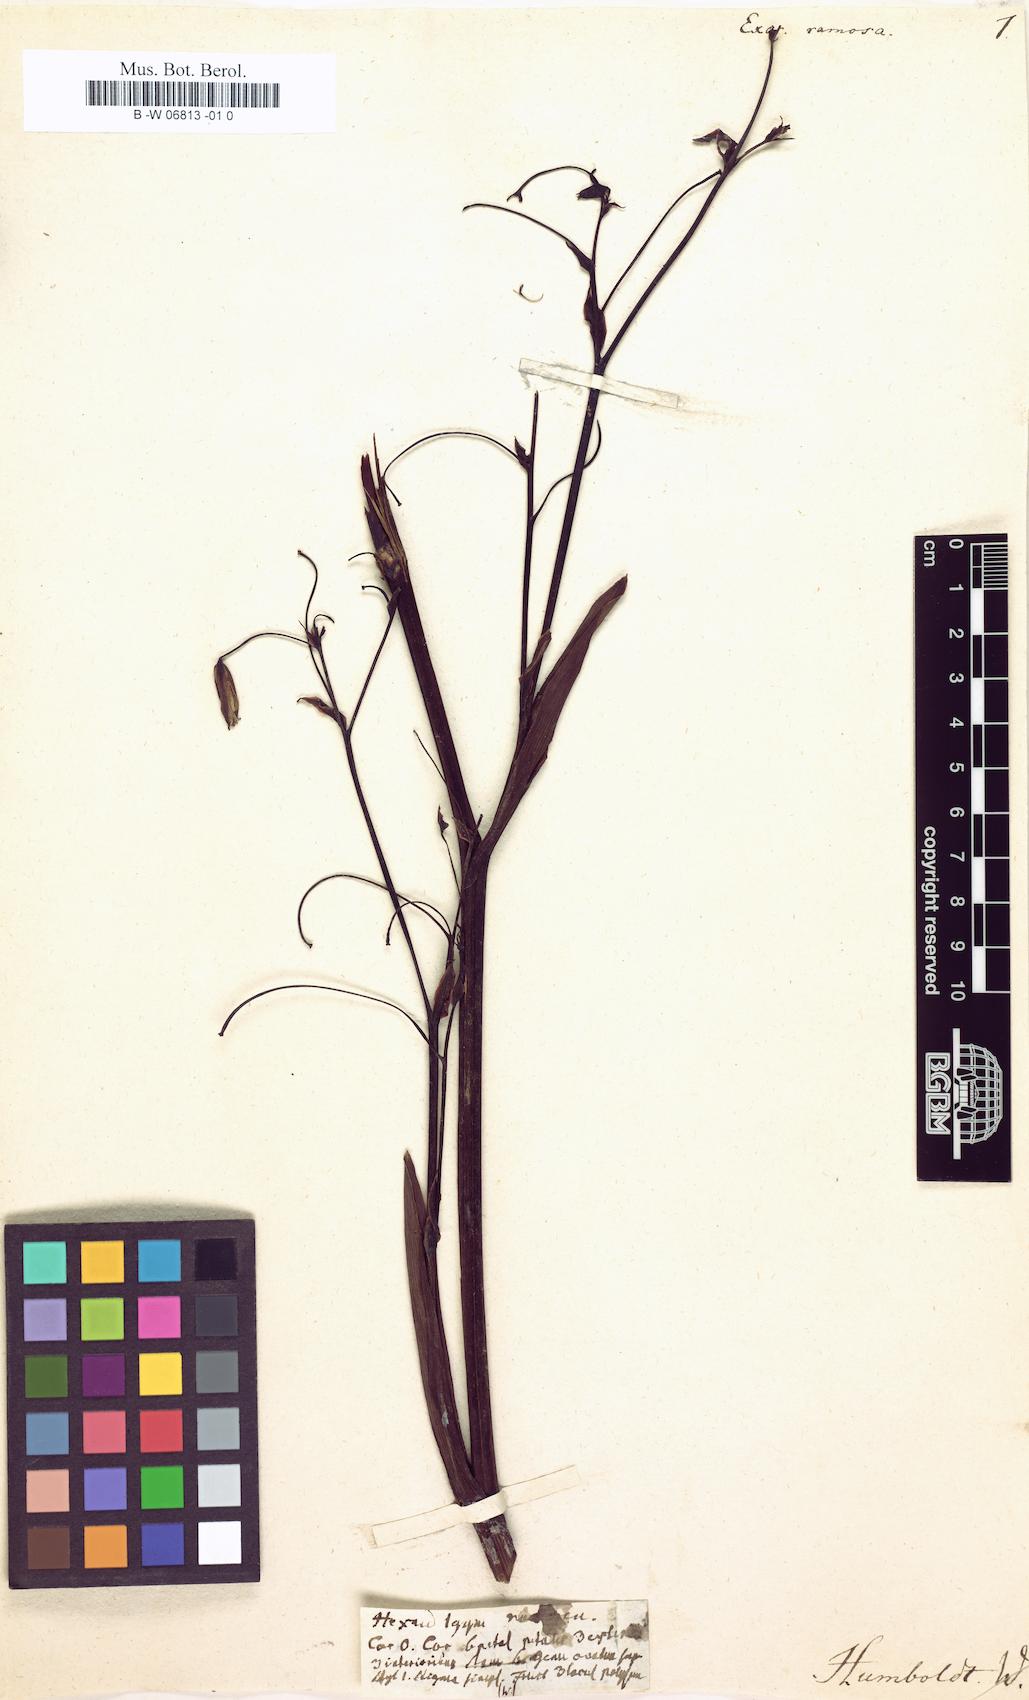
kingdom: Plantae
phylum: Tracheophyta
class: Liliopsida
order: Asparagales
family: Asphodelaceae
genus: Excremis
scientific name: Excremis coarctata
